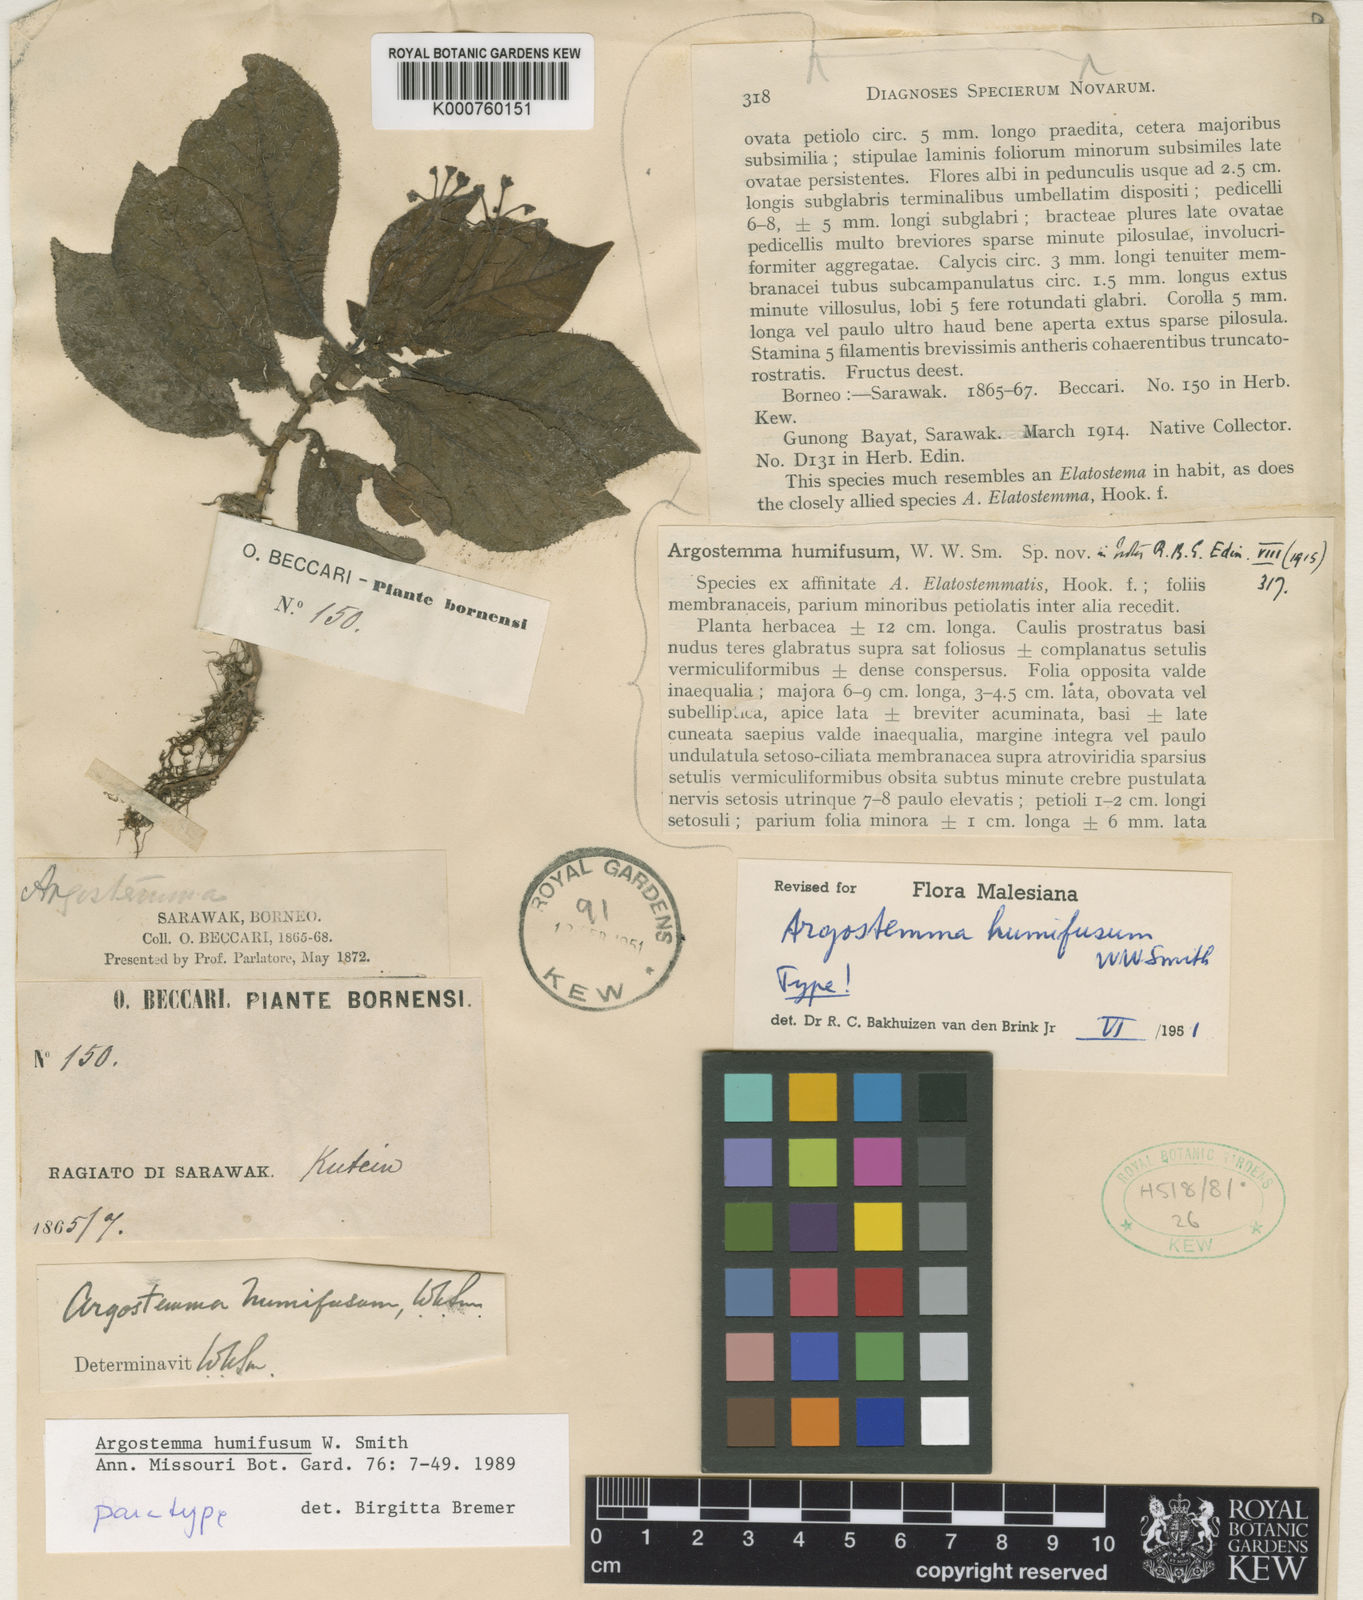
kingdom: Plantae
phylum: Tracheophyta
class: Magnoliopsida
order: Gentianales
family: Rubiaceae
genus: Argostemma
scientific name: Argostemma humifusum
